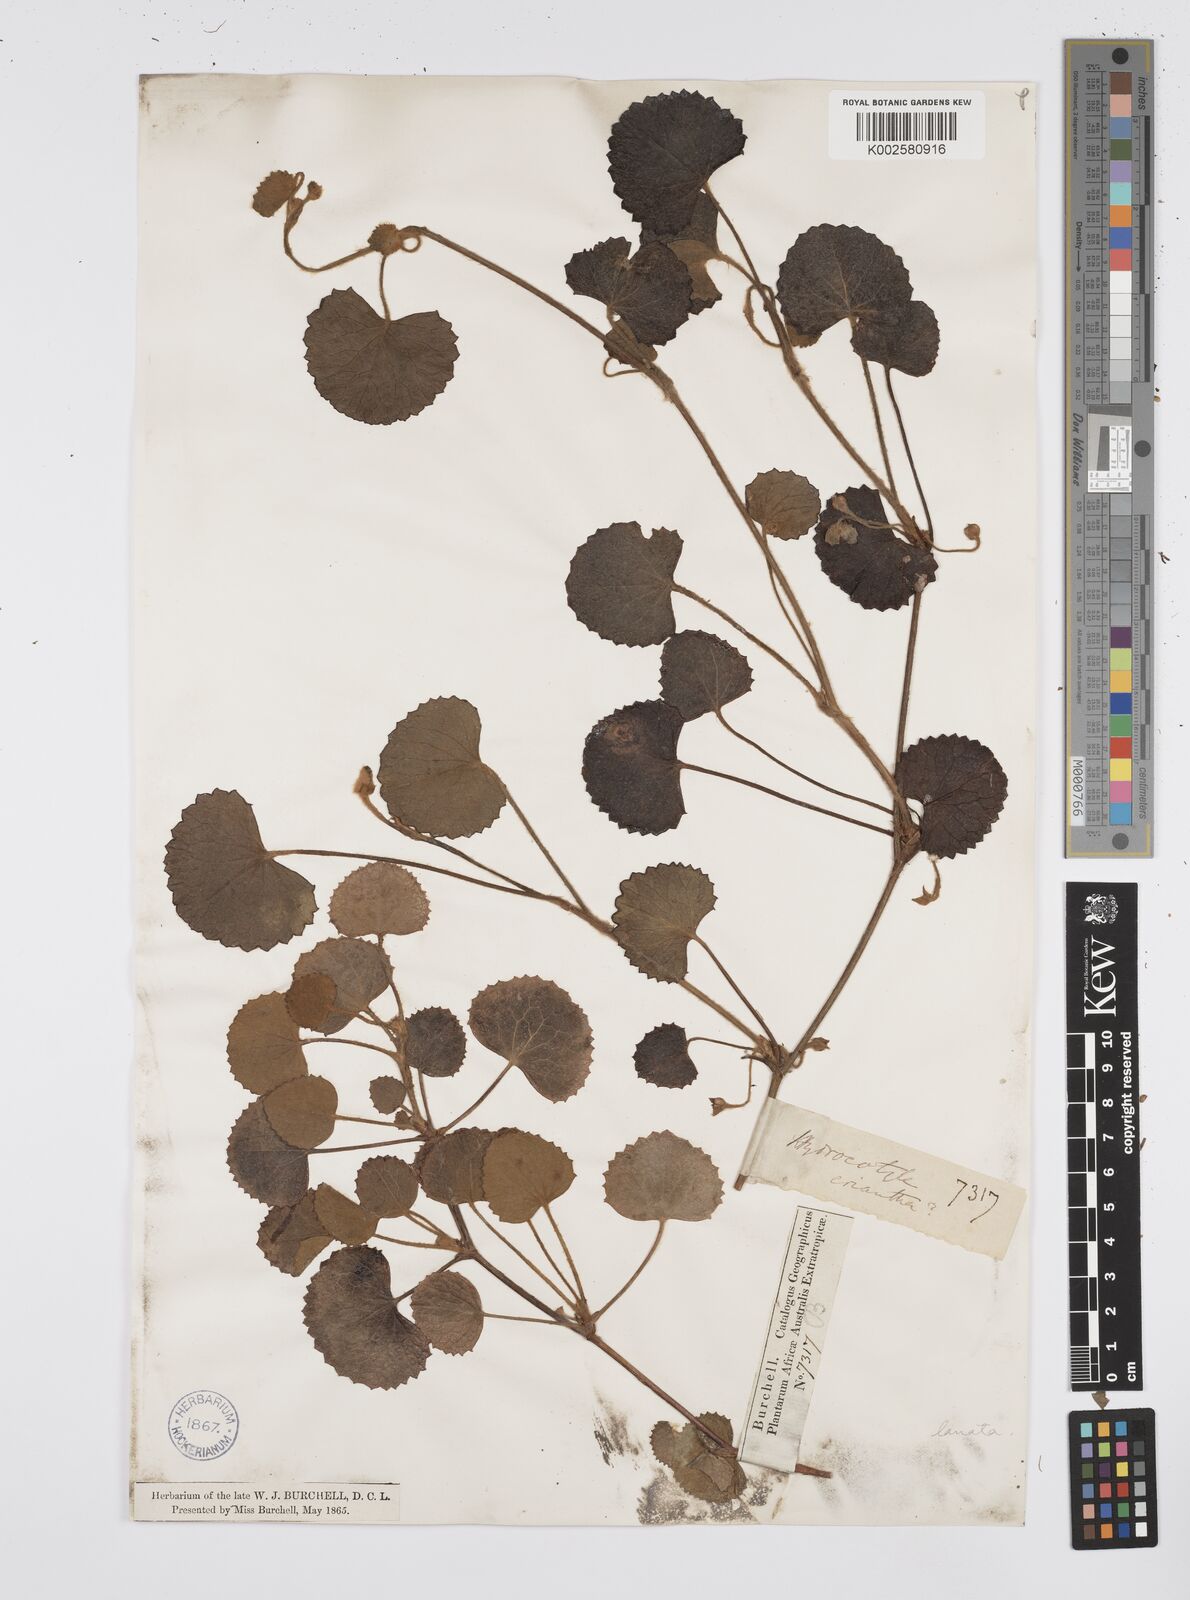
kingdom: Plantae
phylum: Tracheophyta
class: Magnoliopsida
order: Apiales
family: Apiaceae
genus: Centella
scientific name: Centella lanata
